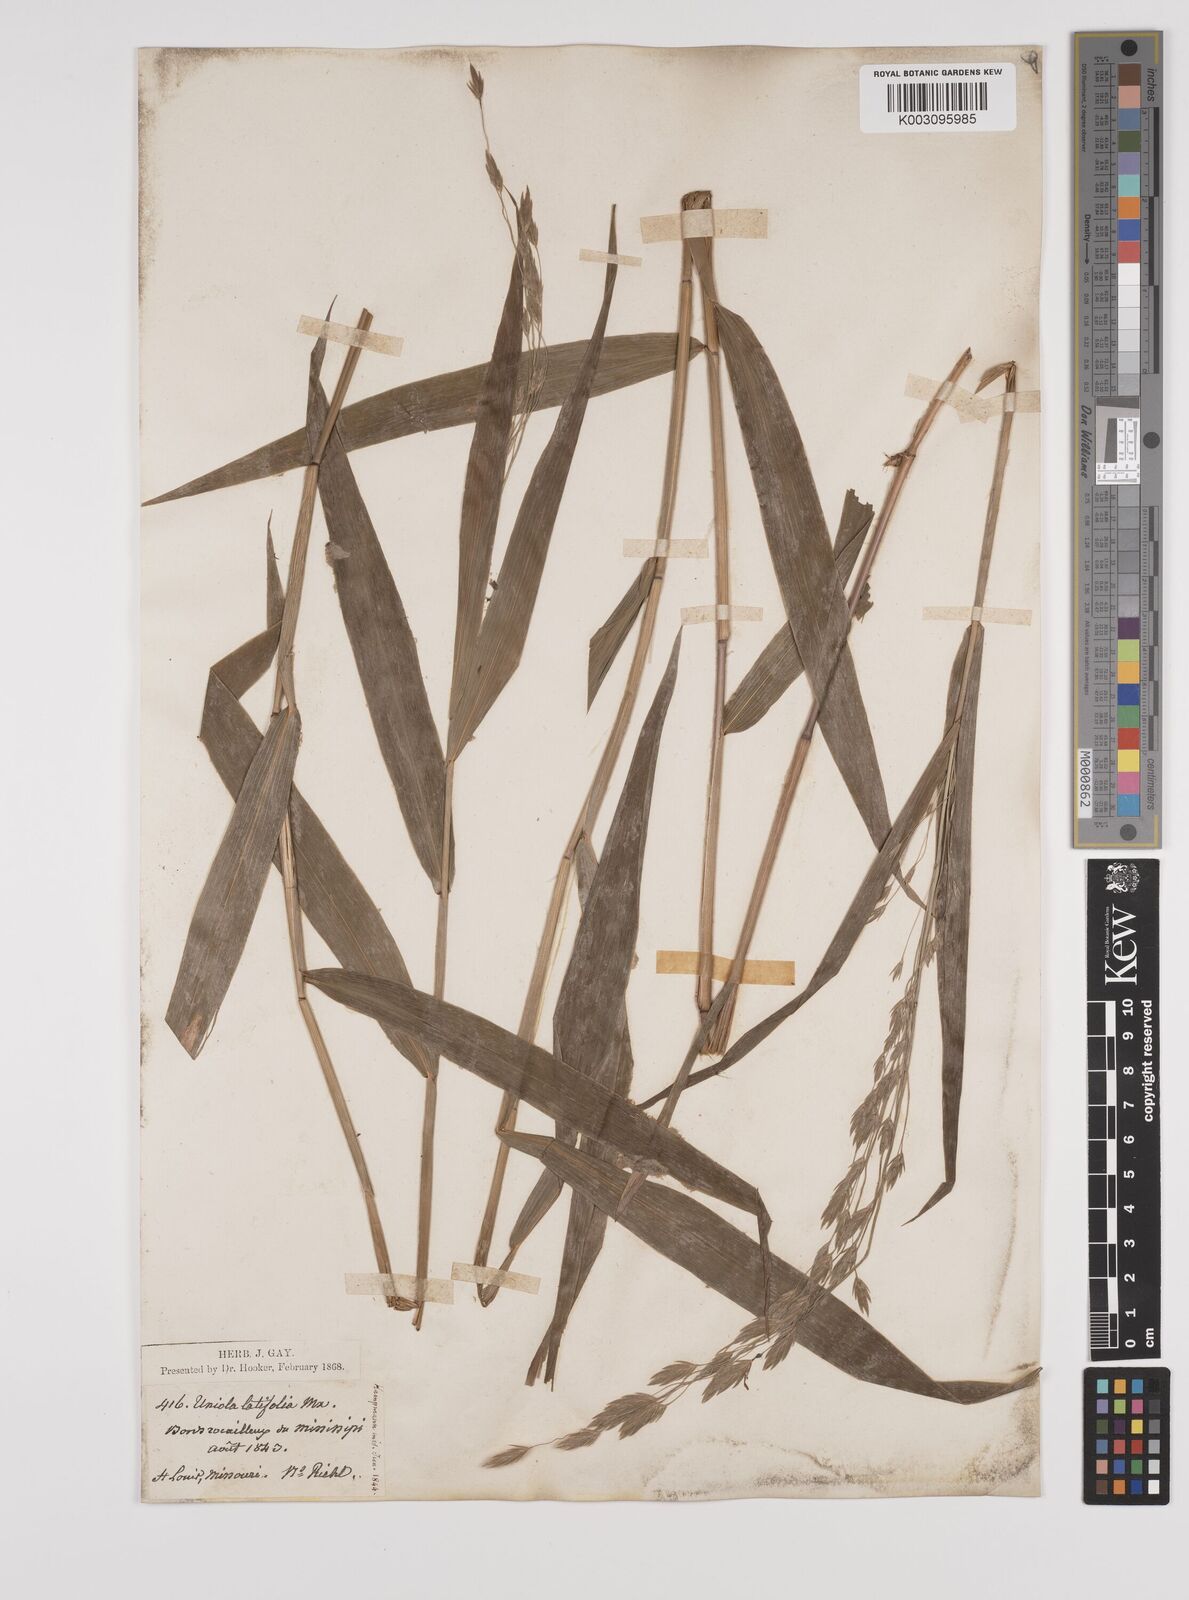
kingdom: Plantae
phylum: Tracheophyta
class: Liliopsida
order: Poales
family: Poaceae
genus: Chasmanthium
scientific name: Chasmanthium latifolium
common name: Broad-leaved chasmanthium
